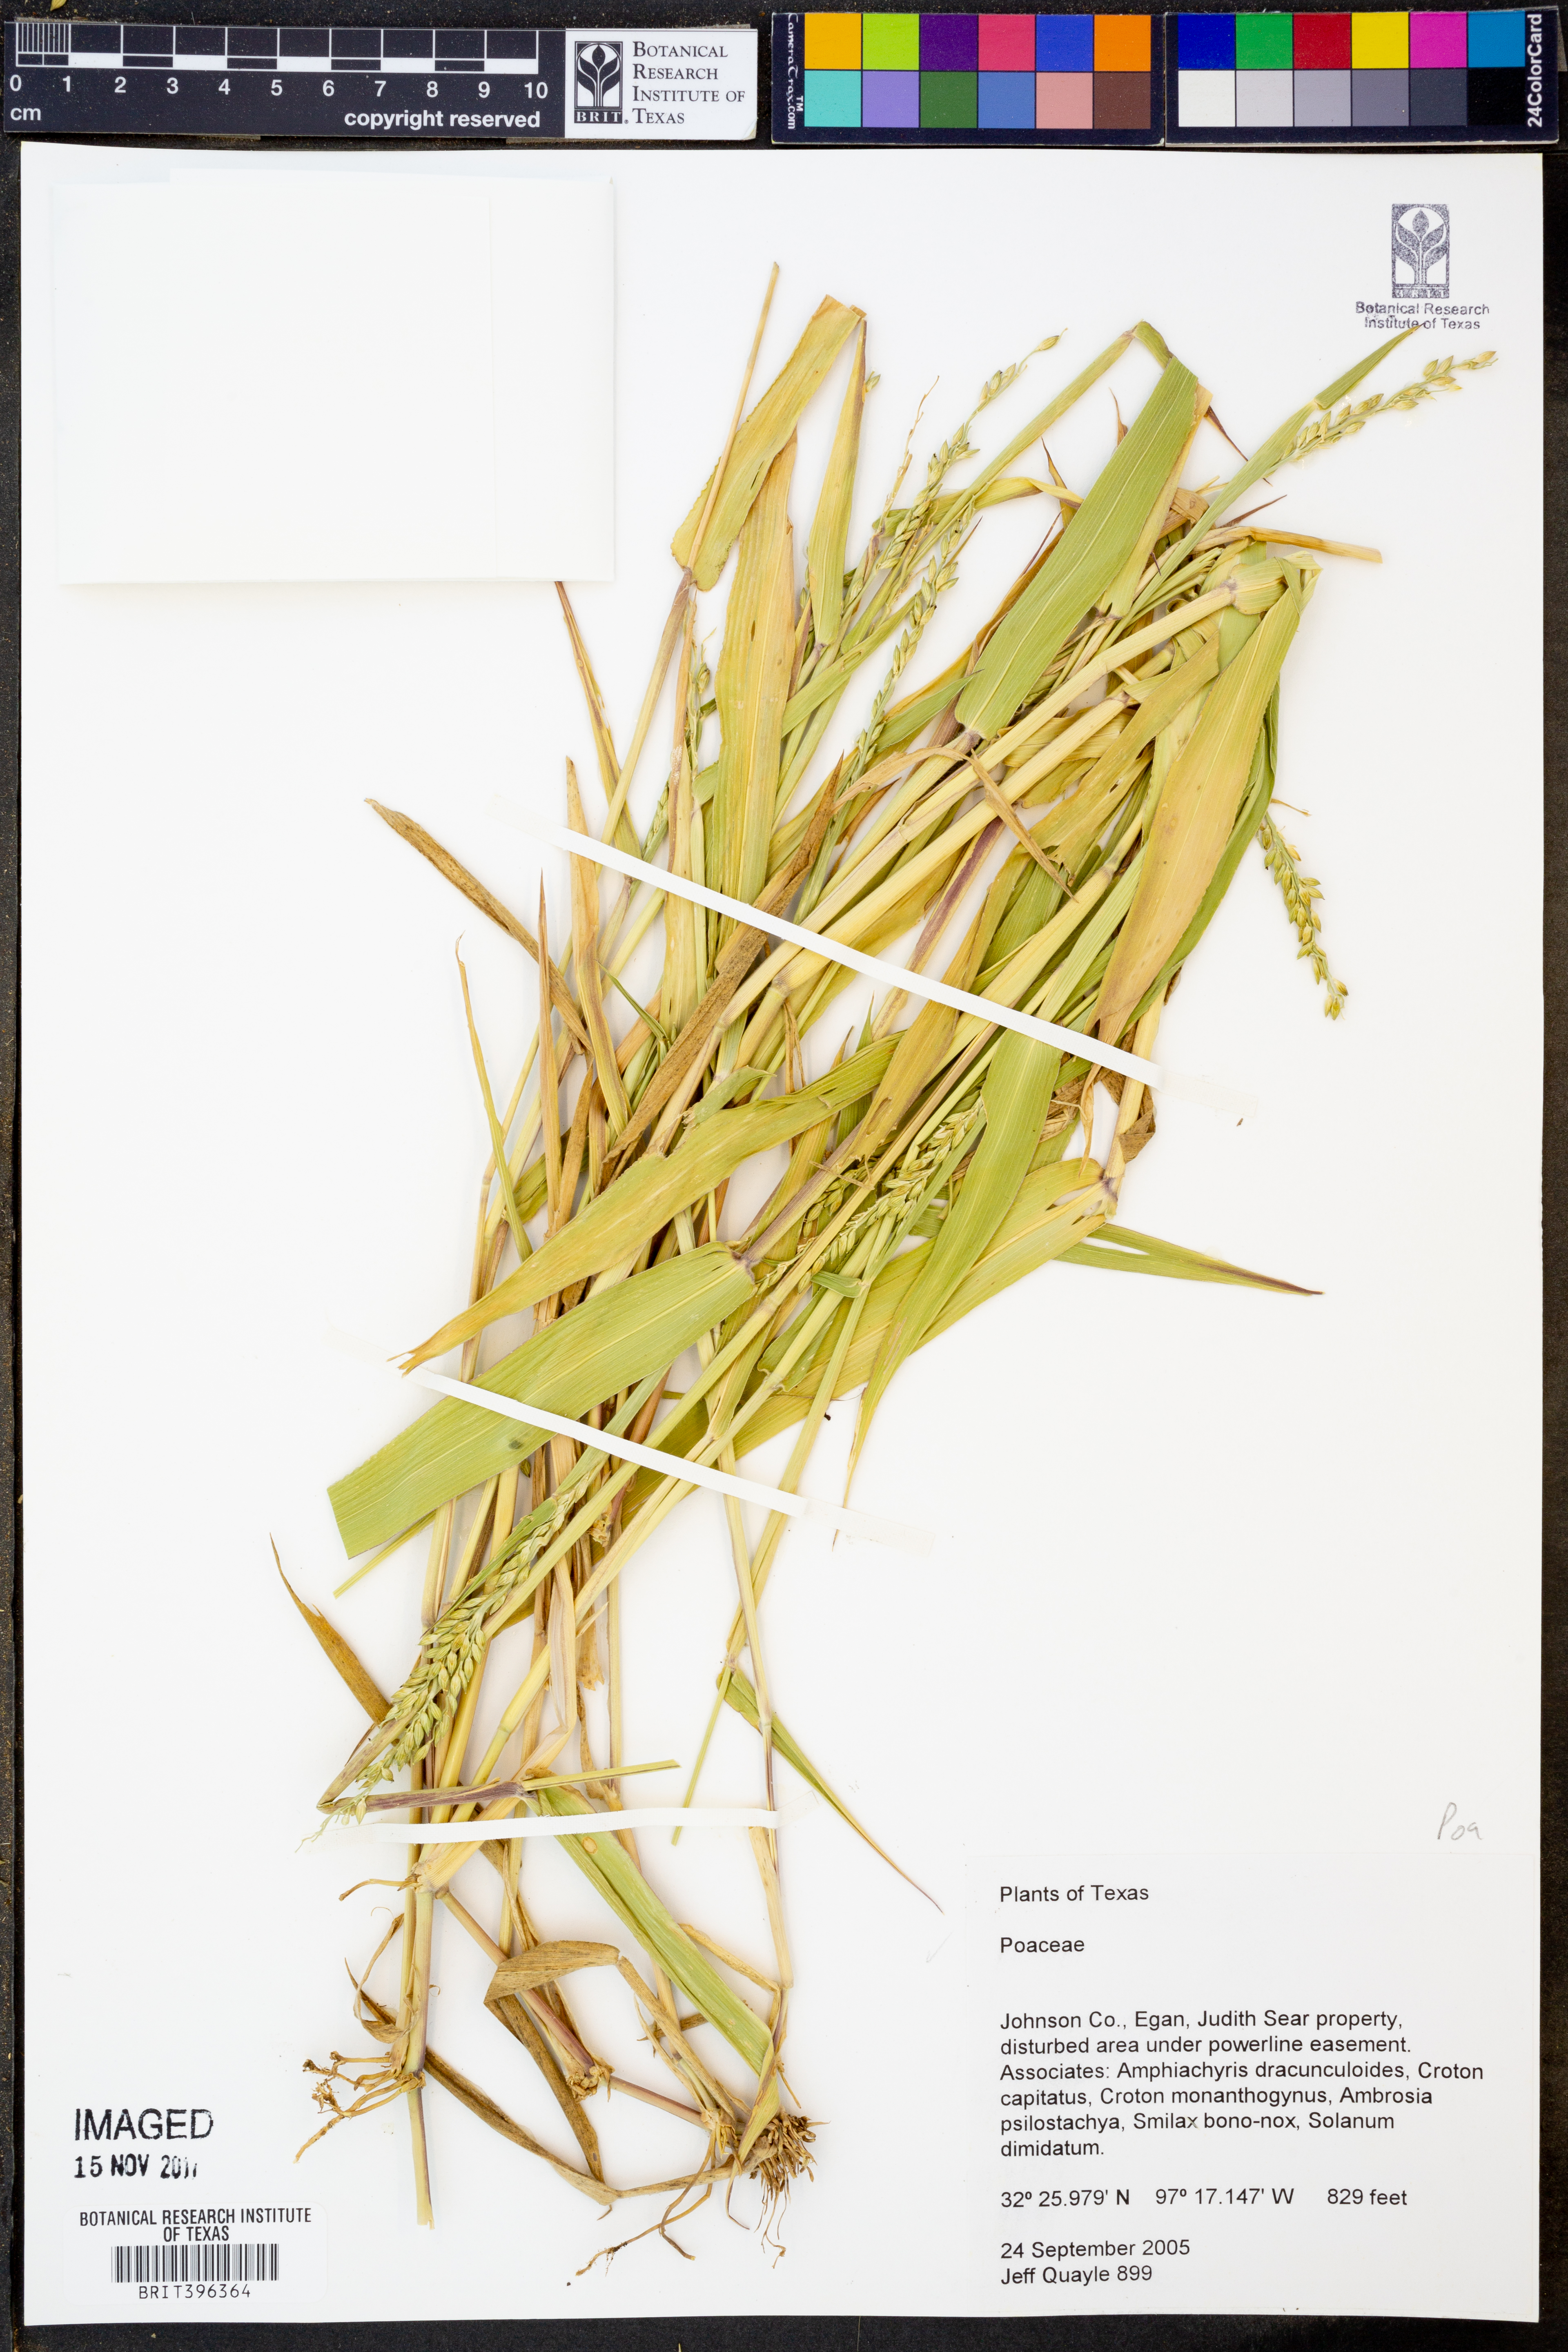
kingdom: Plantae
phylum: Tracheophyta
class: Liliopsida
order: Poales
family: Poaceae
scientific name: Poaceae
